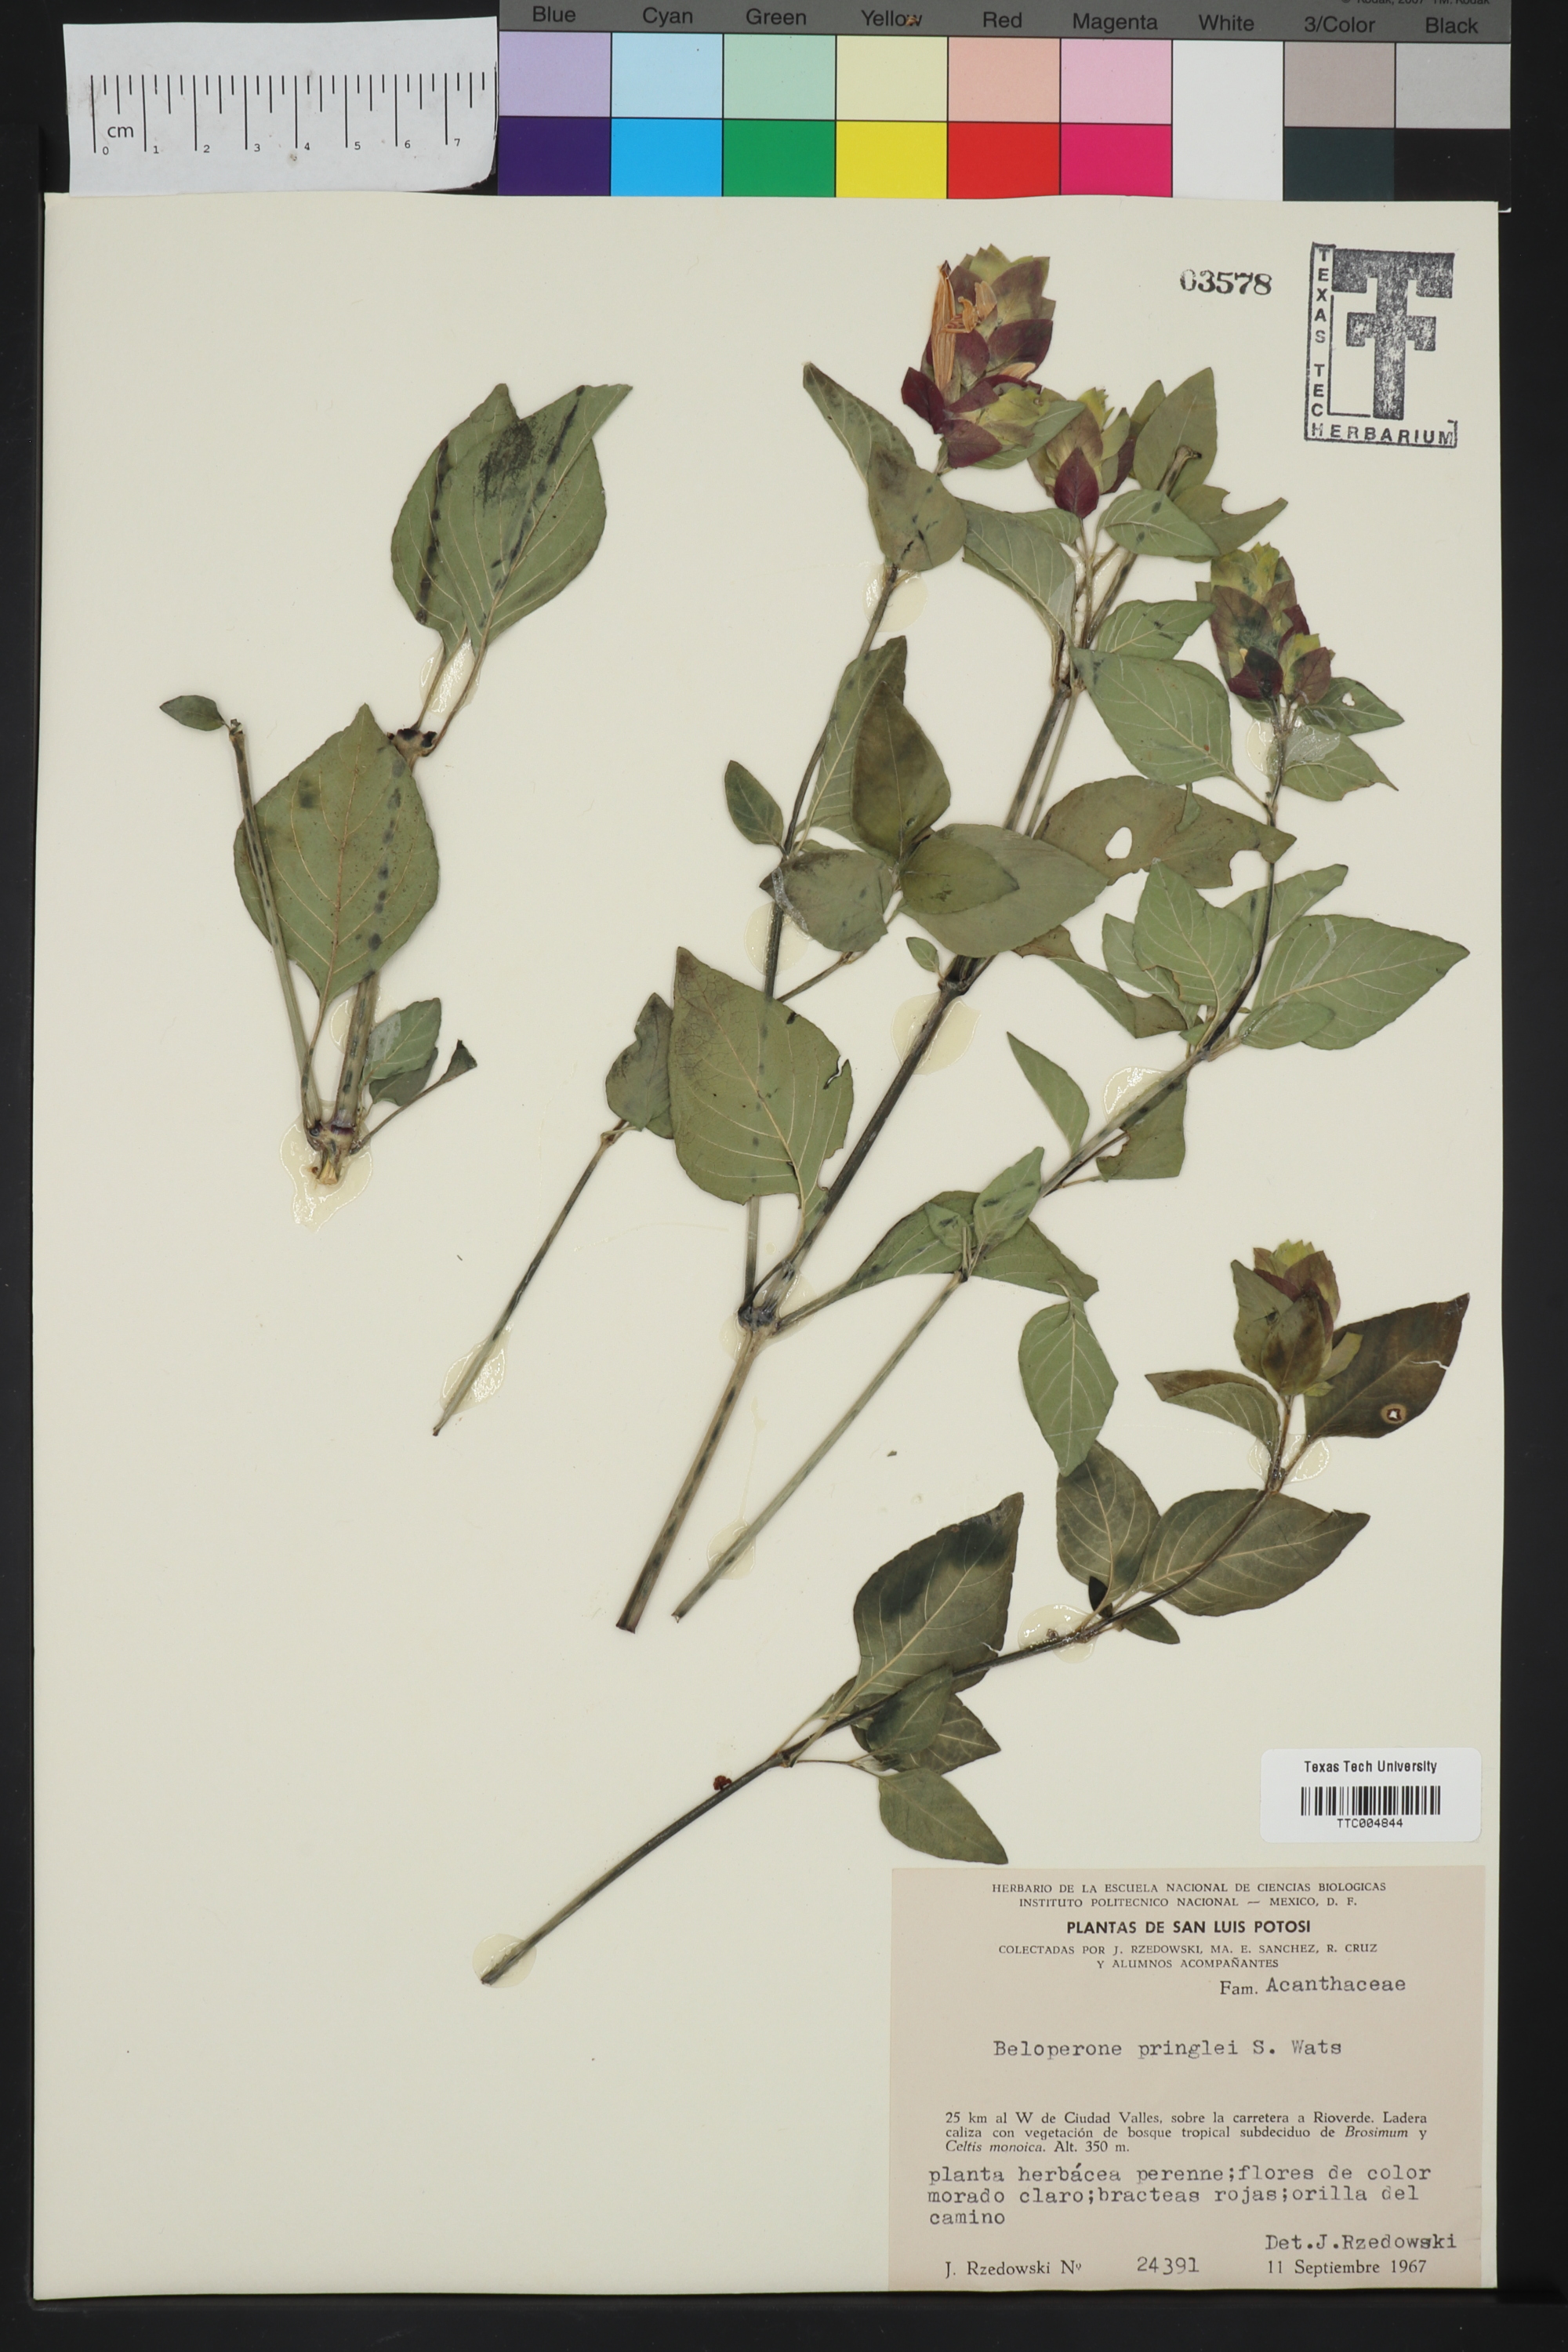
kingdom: Plantae
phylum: Tracheophyta
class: Magnoliopsida
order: Lamiales
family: Acanthaceae
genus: Justicia
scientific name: Justicia brandegeeana
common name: Shrimpplant
